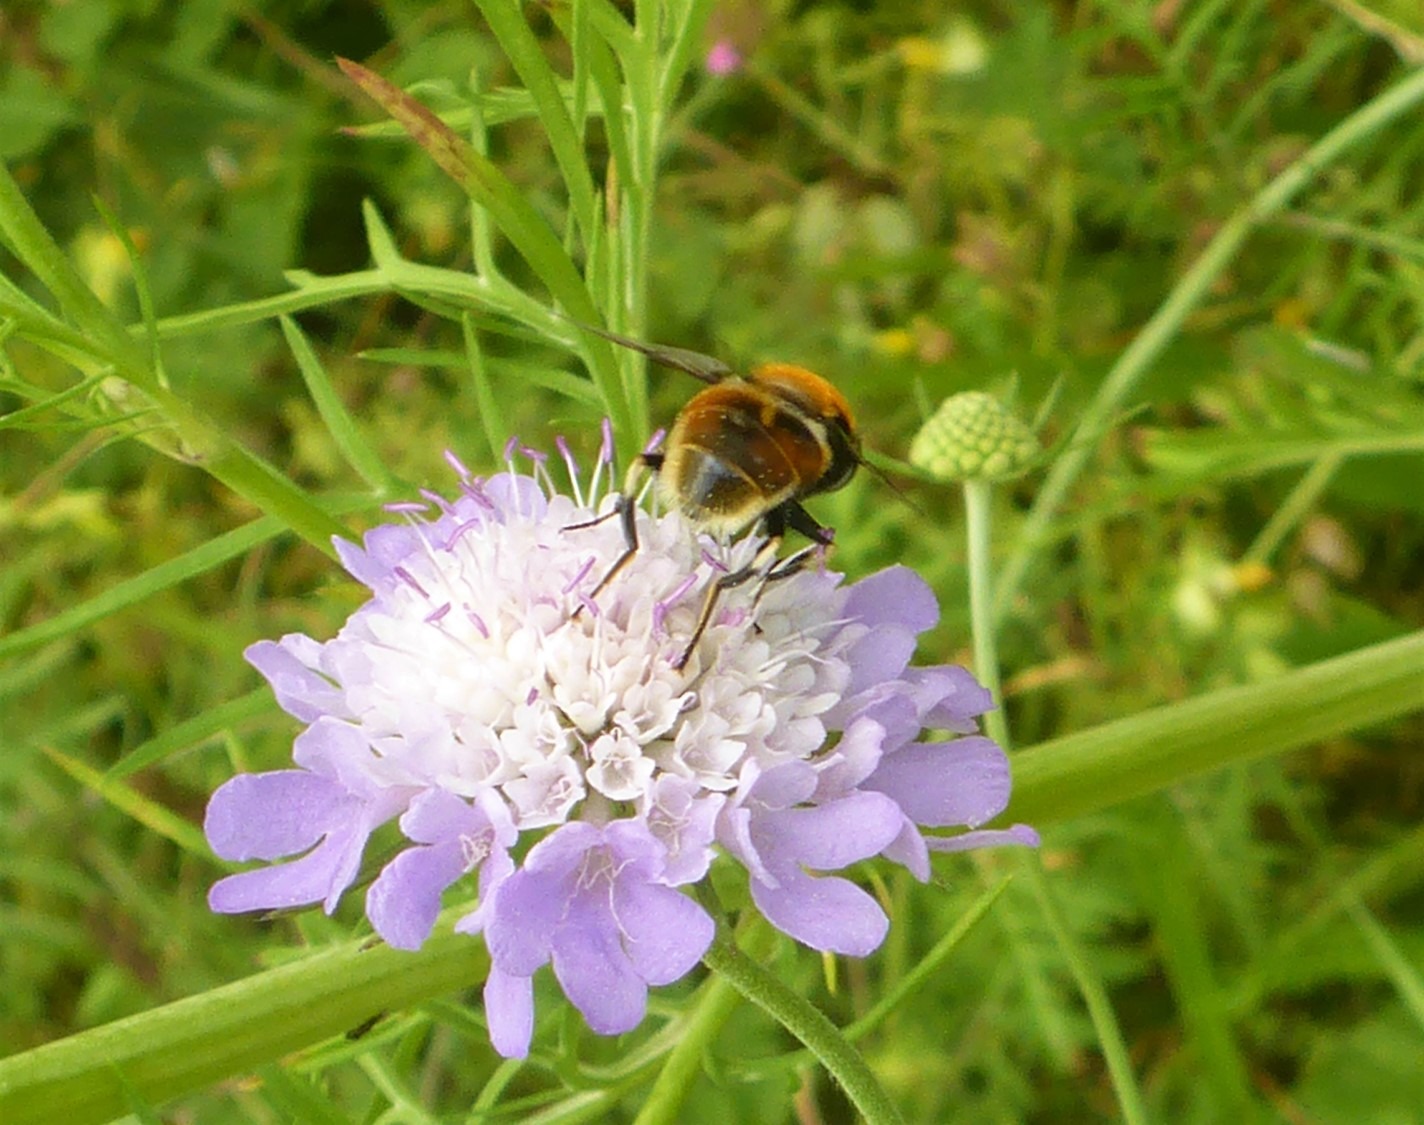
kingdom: Animalia
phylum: Arthropoda
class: Insecta
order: Diptera
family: Syrphidae
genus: Eristalis
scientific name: Eristalis intricaria
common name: Håret dyndflue
